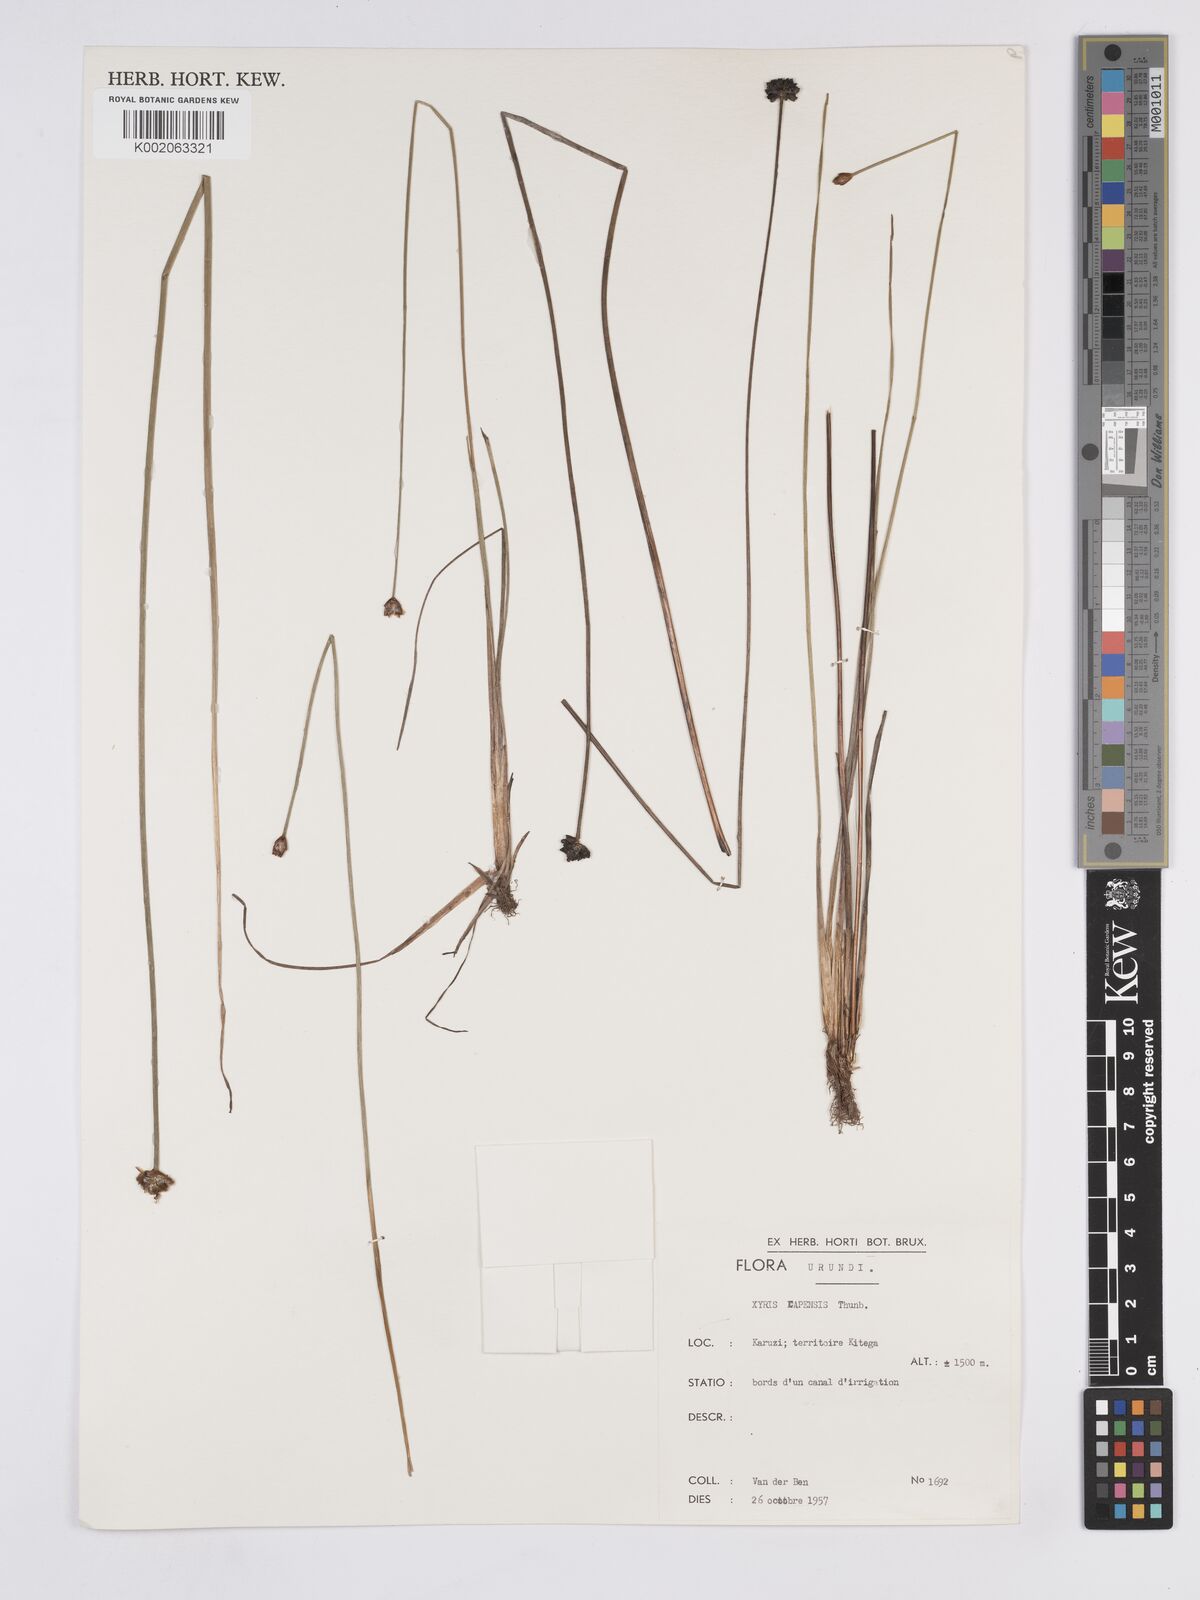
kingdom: Plantae
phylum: Tracheophyta
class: Liliopsida
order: Poales
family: Xyridaceae
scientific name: Xyridaceae
